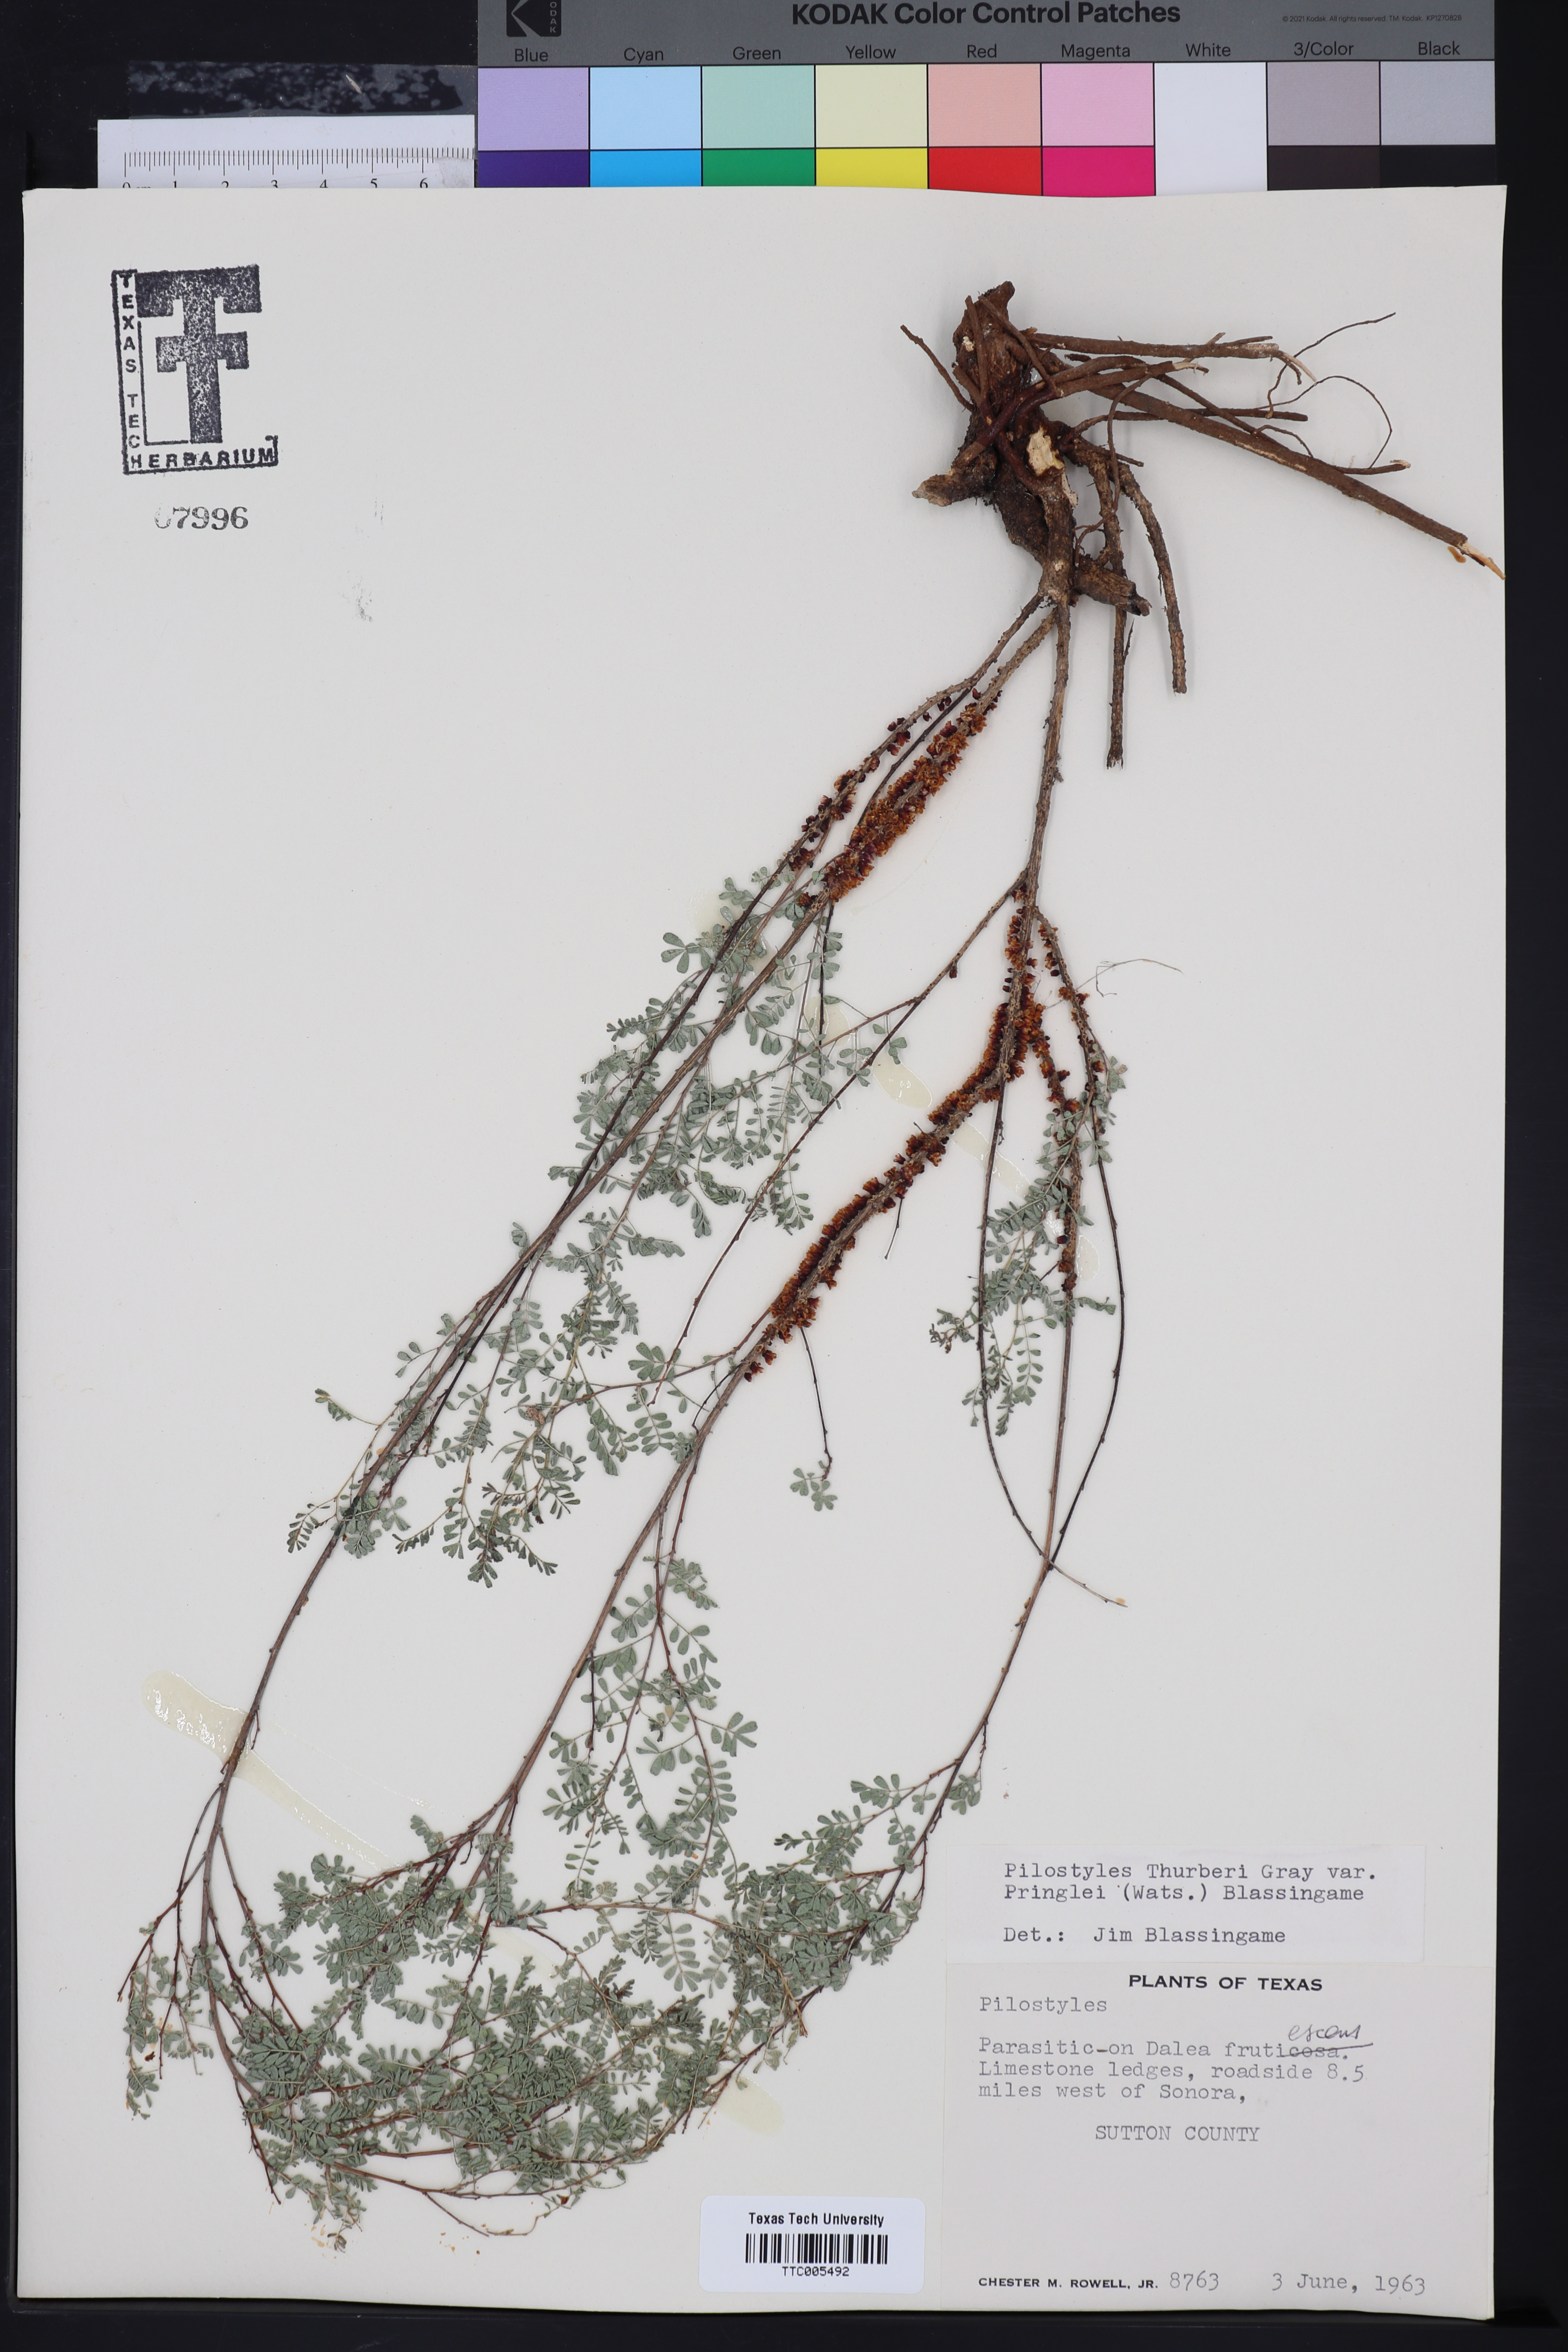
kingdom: Plantae
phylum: Tracheophyta
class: Magnoliopsida
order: Cucurbitales
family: Apodanthaceae
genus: Pilostyles
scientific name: Pilostyles
